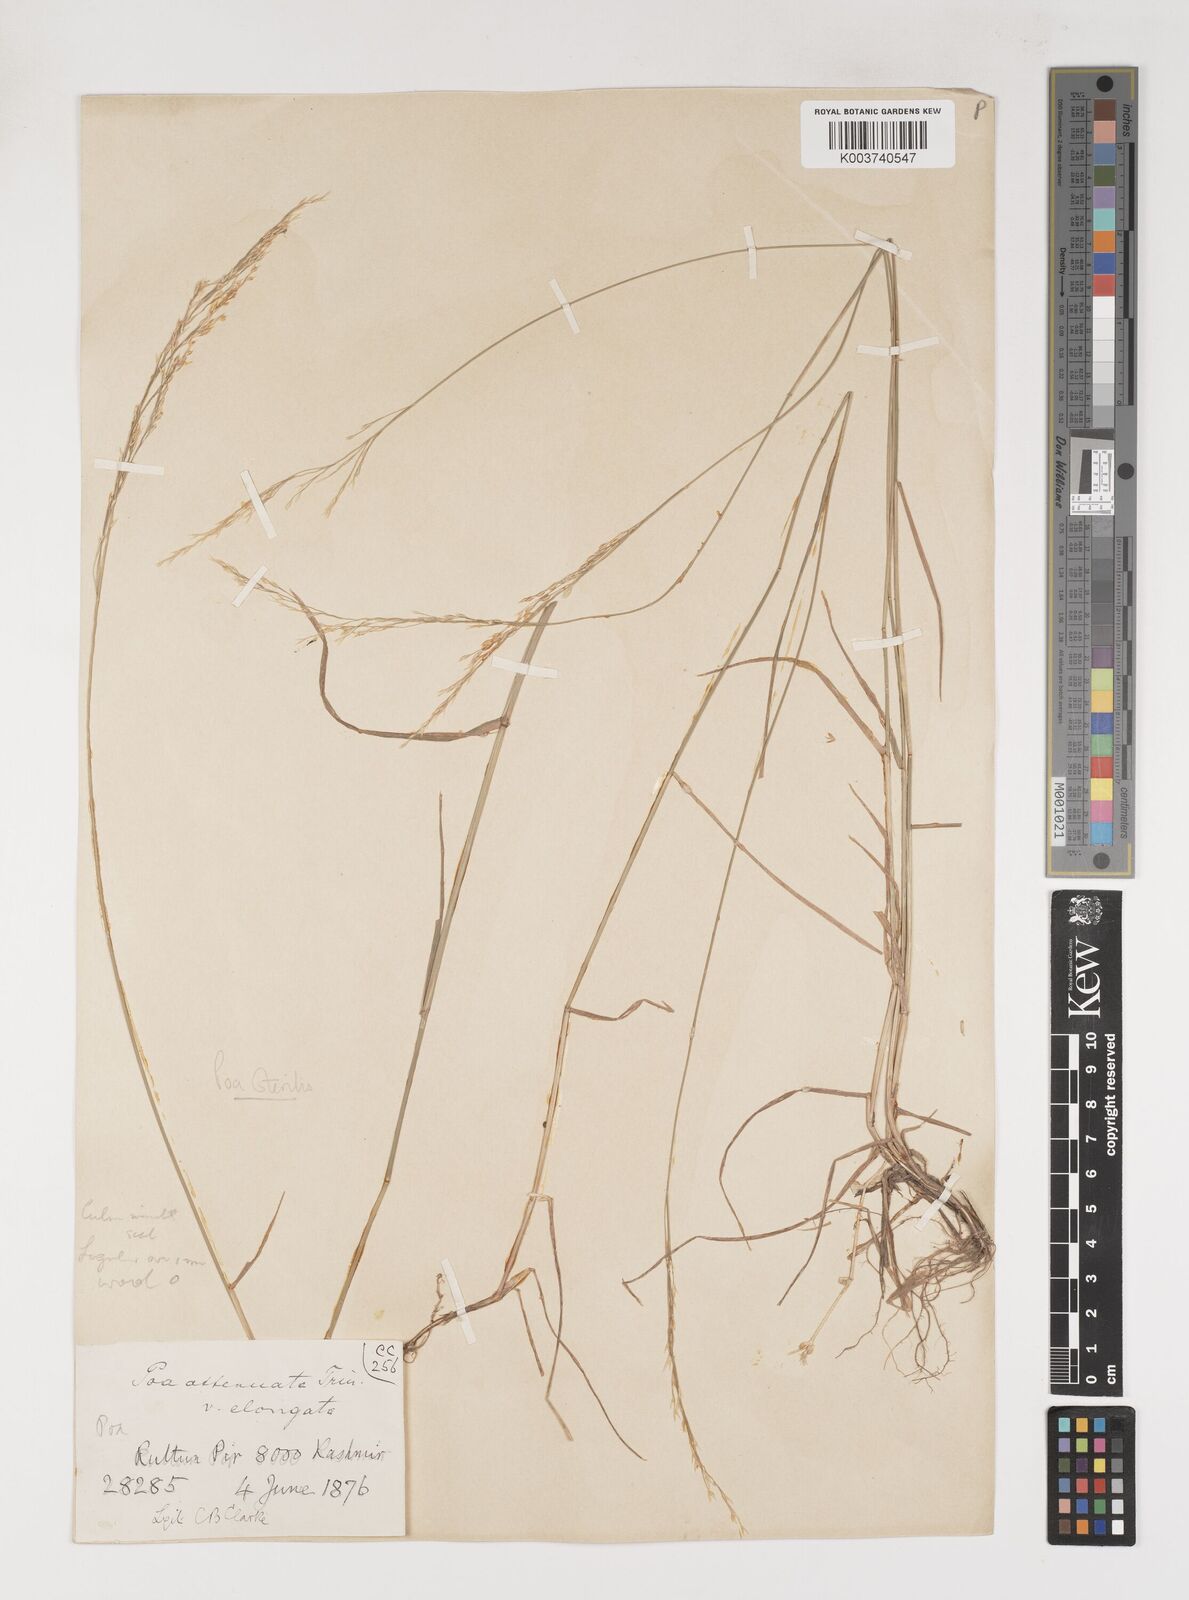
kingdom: Plantae
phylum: Tracheophyta
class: Liliopsida
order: Poales
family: Poaceae
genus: Poa
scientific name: Poa sterilis
